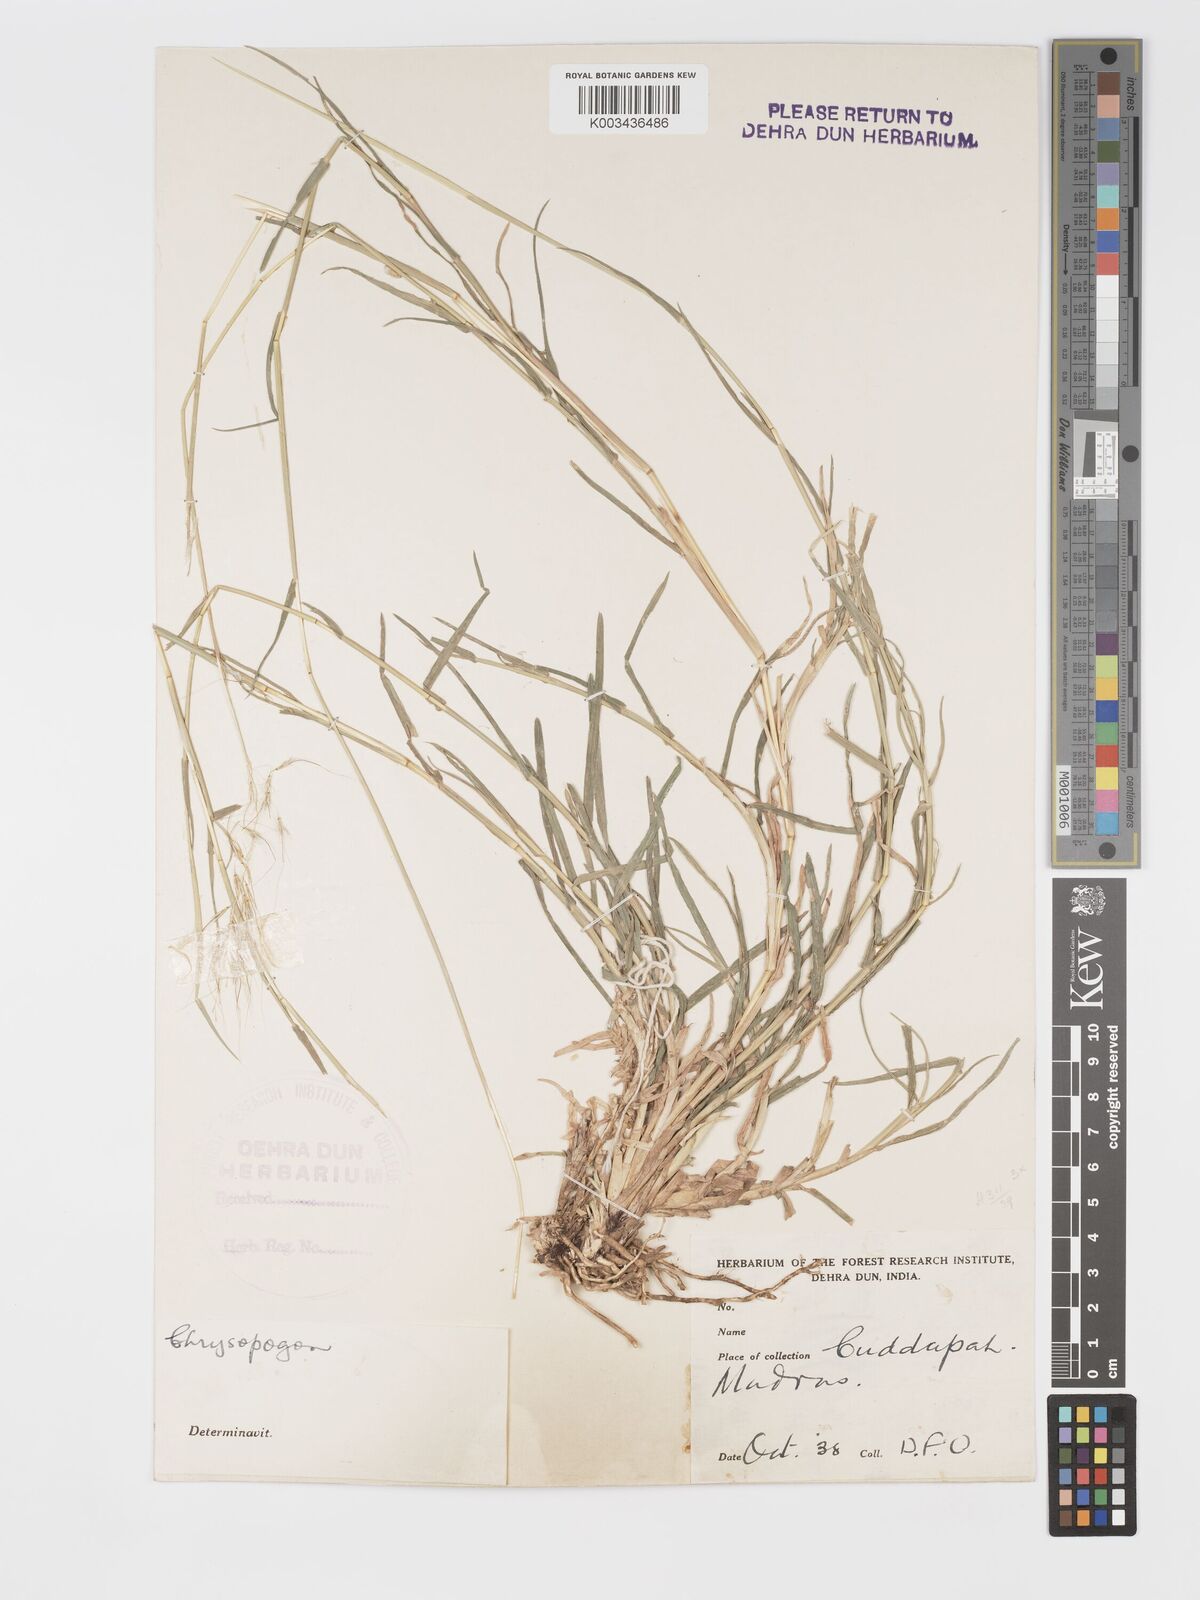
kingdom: Plantae
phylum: Tracheophyta
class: Liliopsida
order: Poales
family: Poaceae
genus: Chrysopogon
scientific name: Chrysopogon
